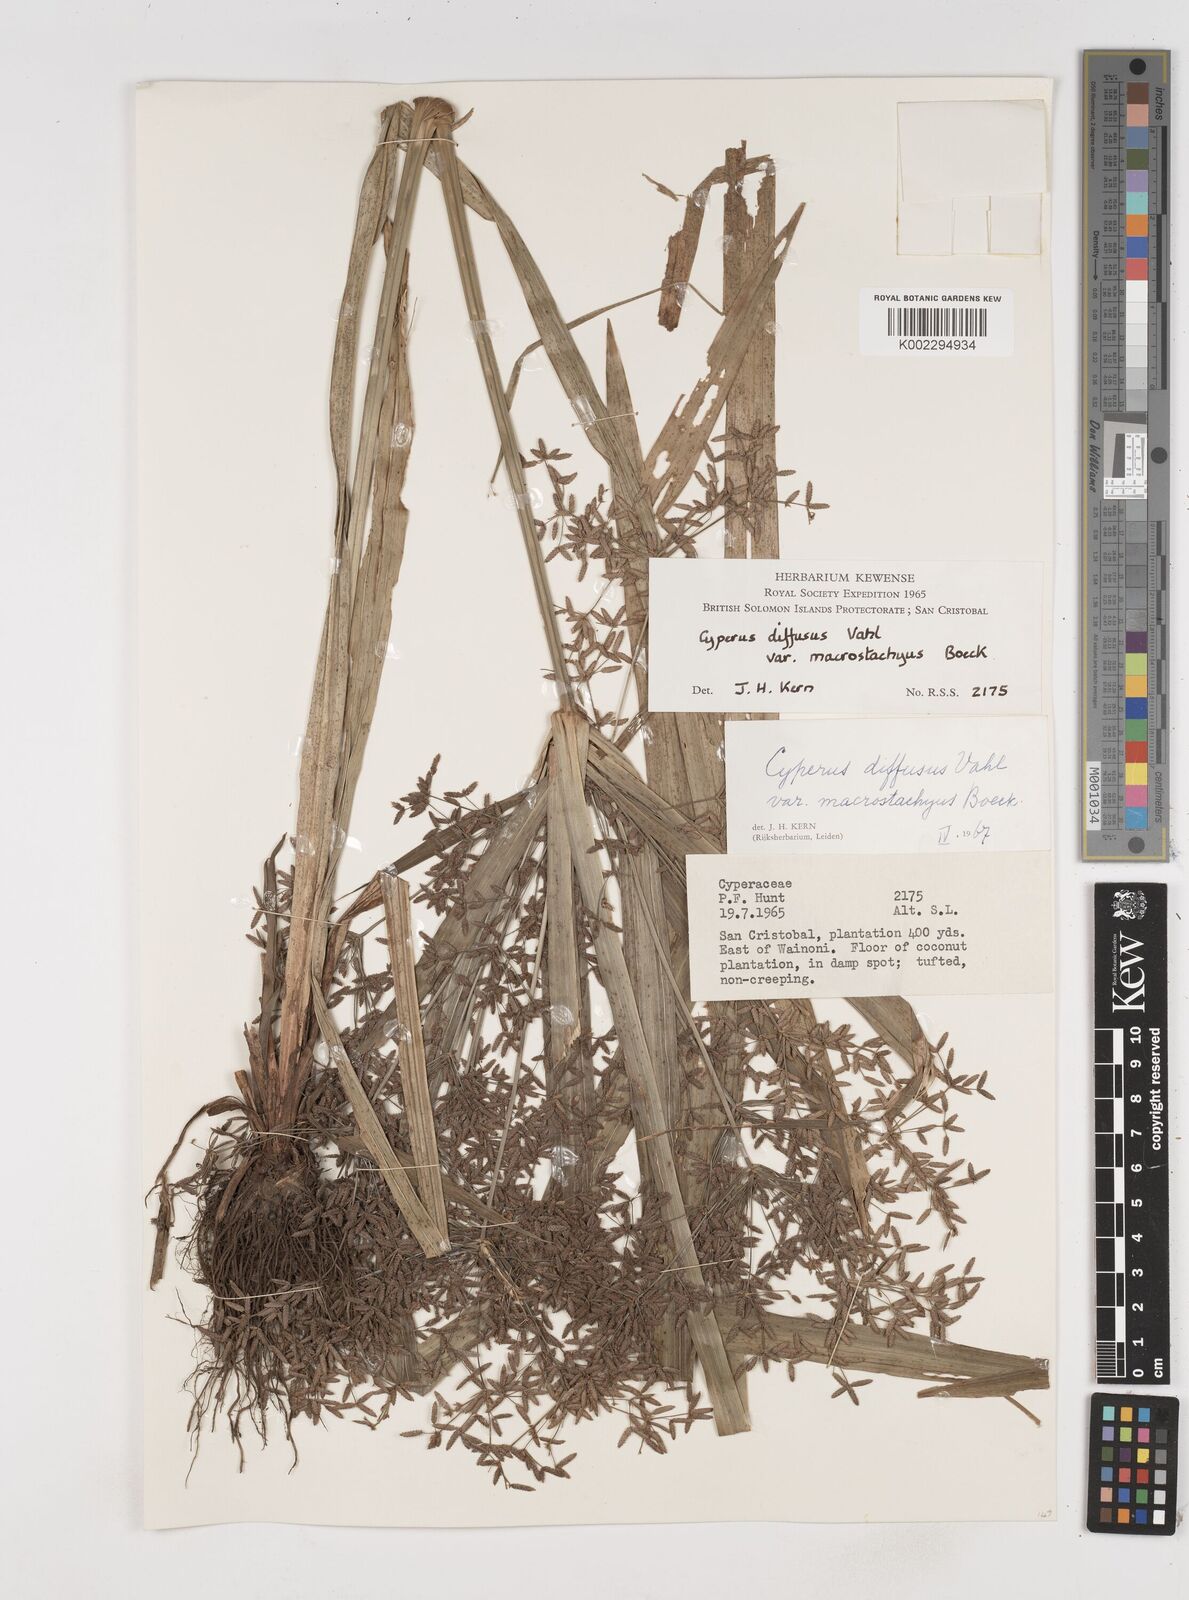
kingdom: Plantae
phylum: Tracheophyta
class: Liliopsida
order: Poales
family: Cyperaceae
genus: Cyperus
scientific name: Cyperus diffusus
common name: Dwarf umbrella grass
